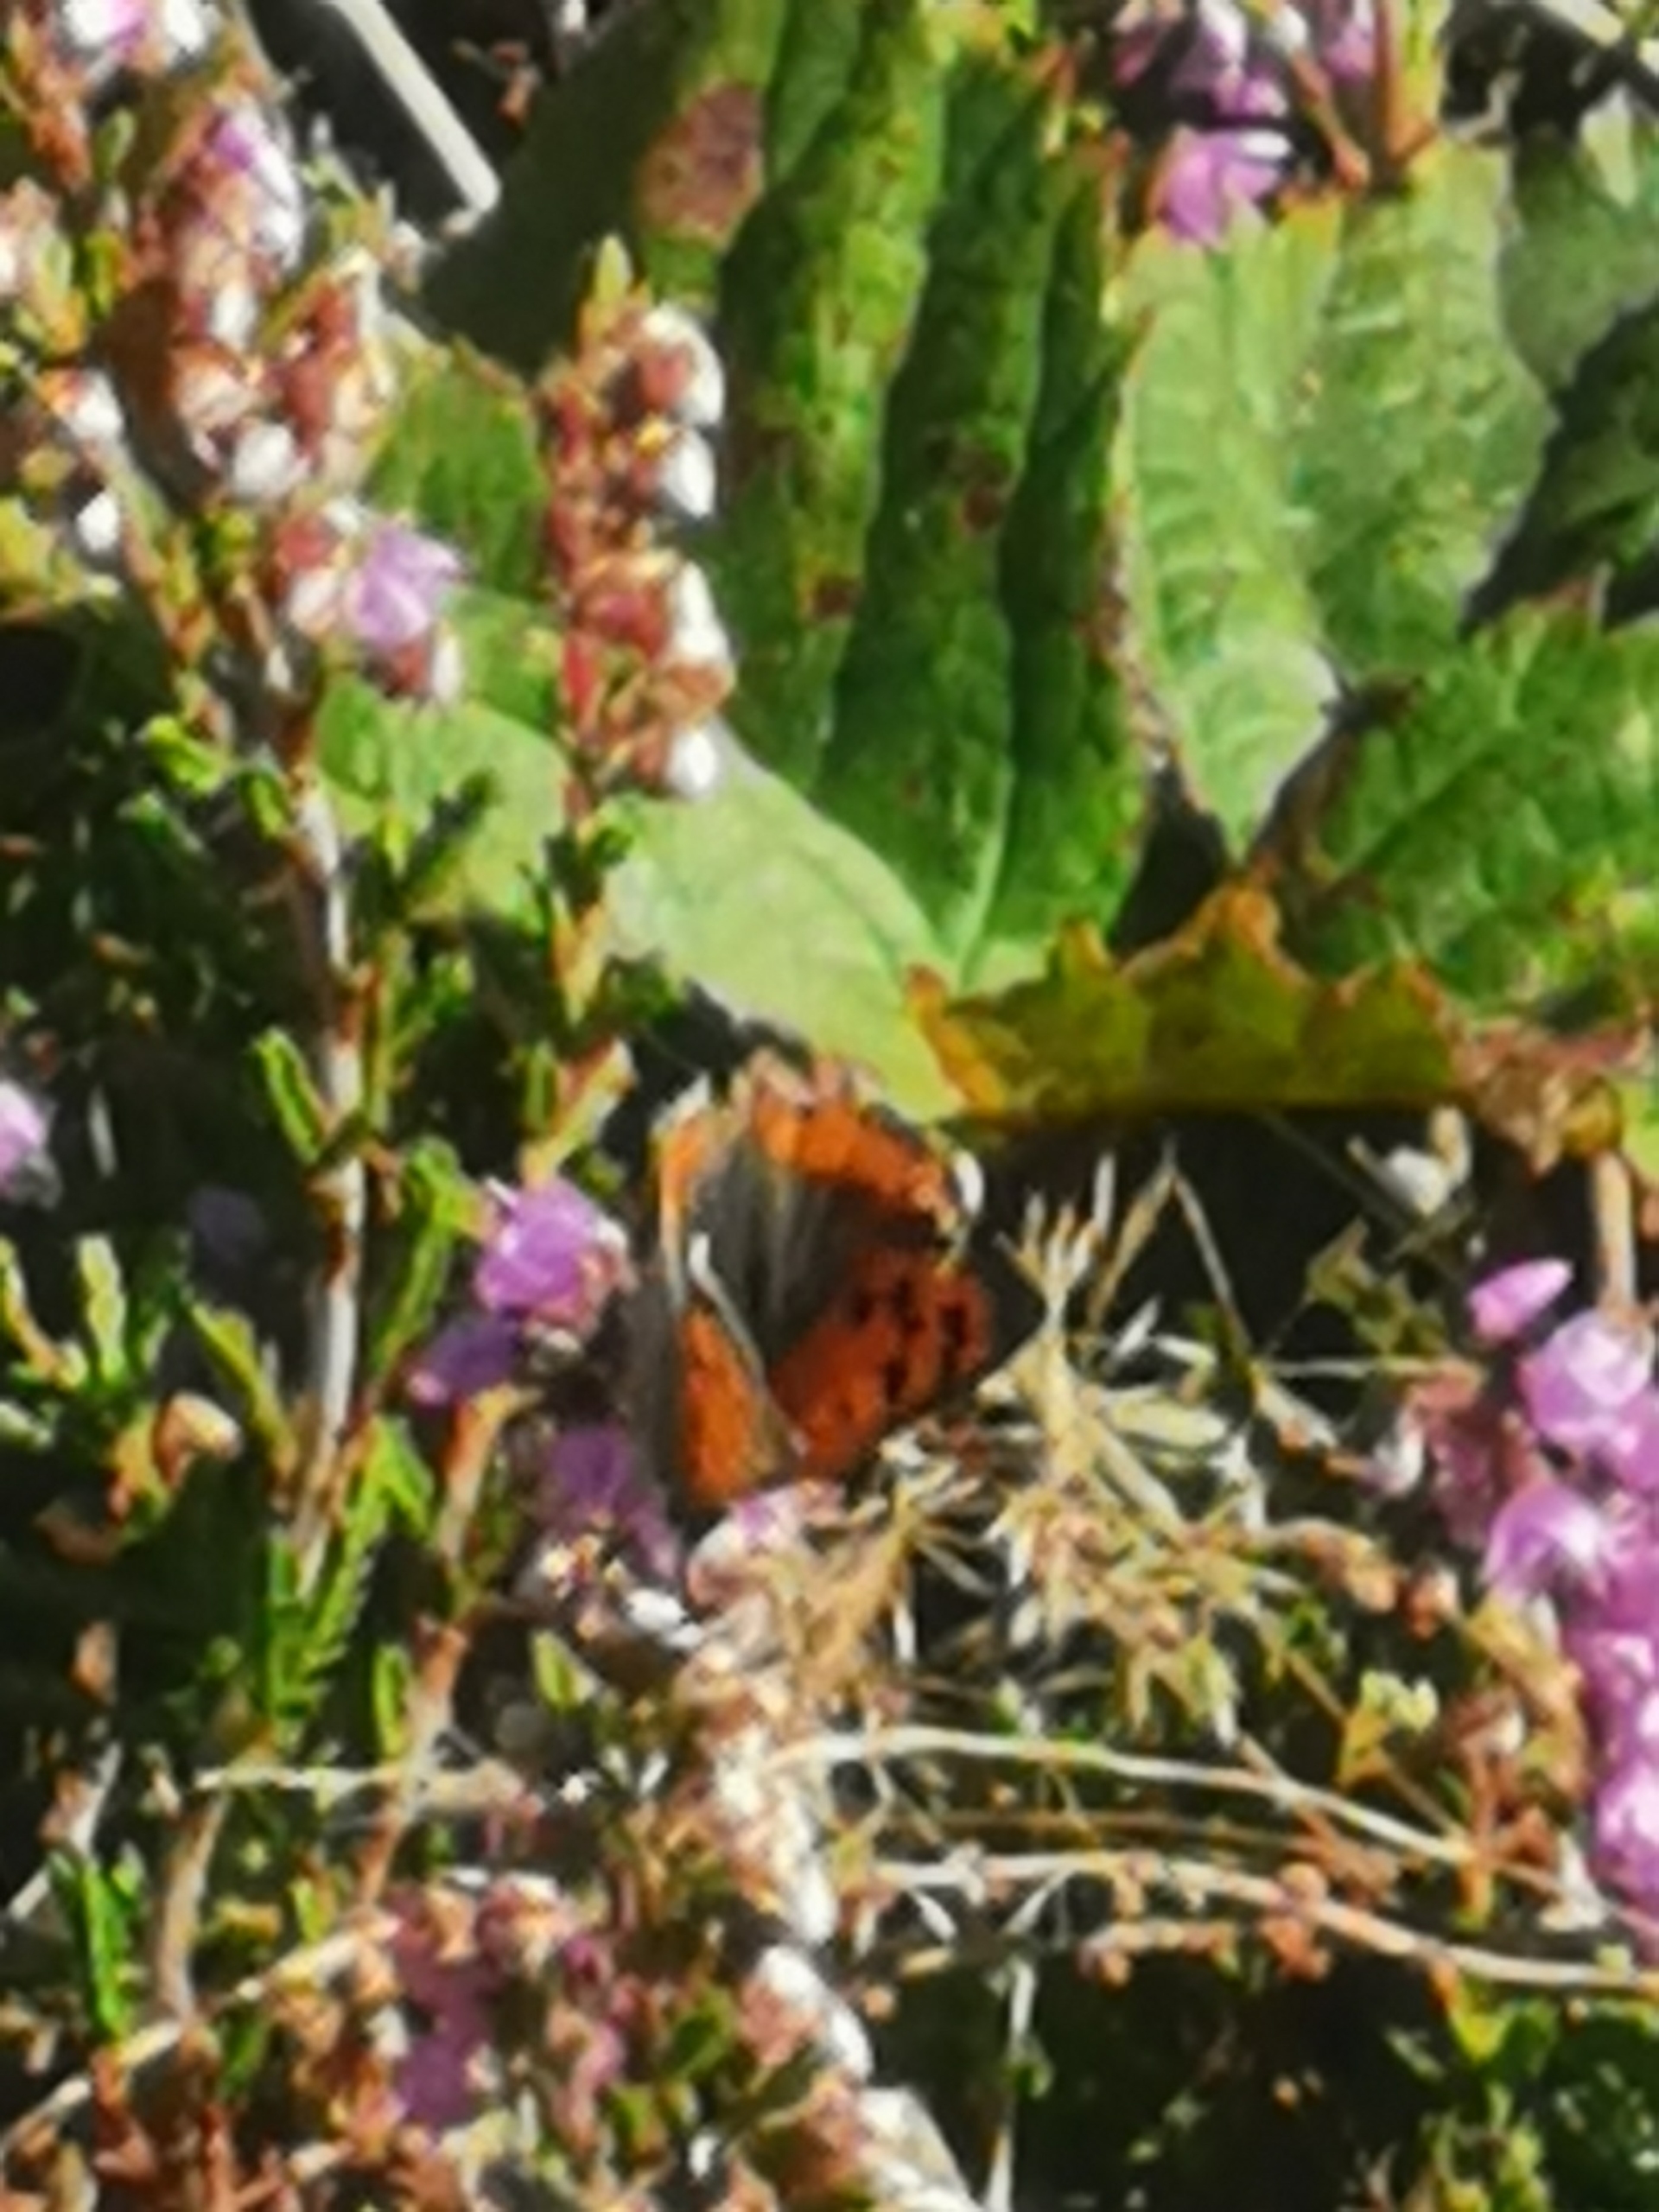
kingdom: Animalia
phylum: Arthropoda
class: Insecta
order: Lepidoptera
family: Lycaenidae
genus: Lycaena
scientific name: Lycaena phlaeas
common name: Lille ildfugl
